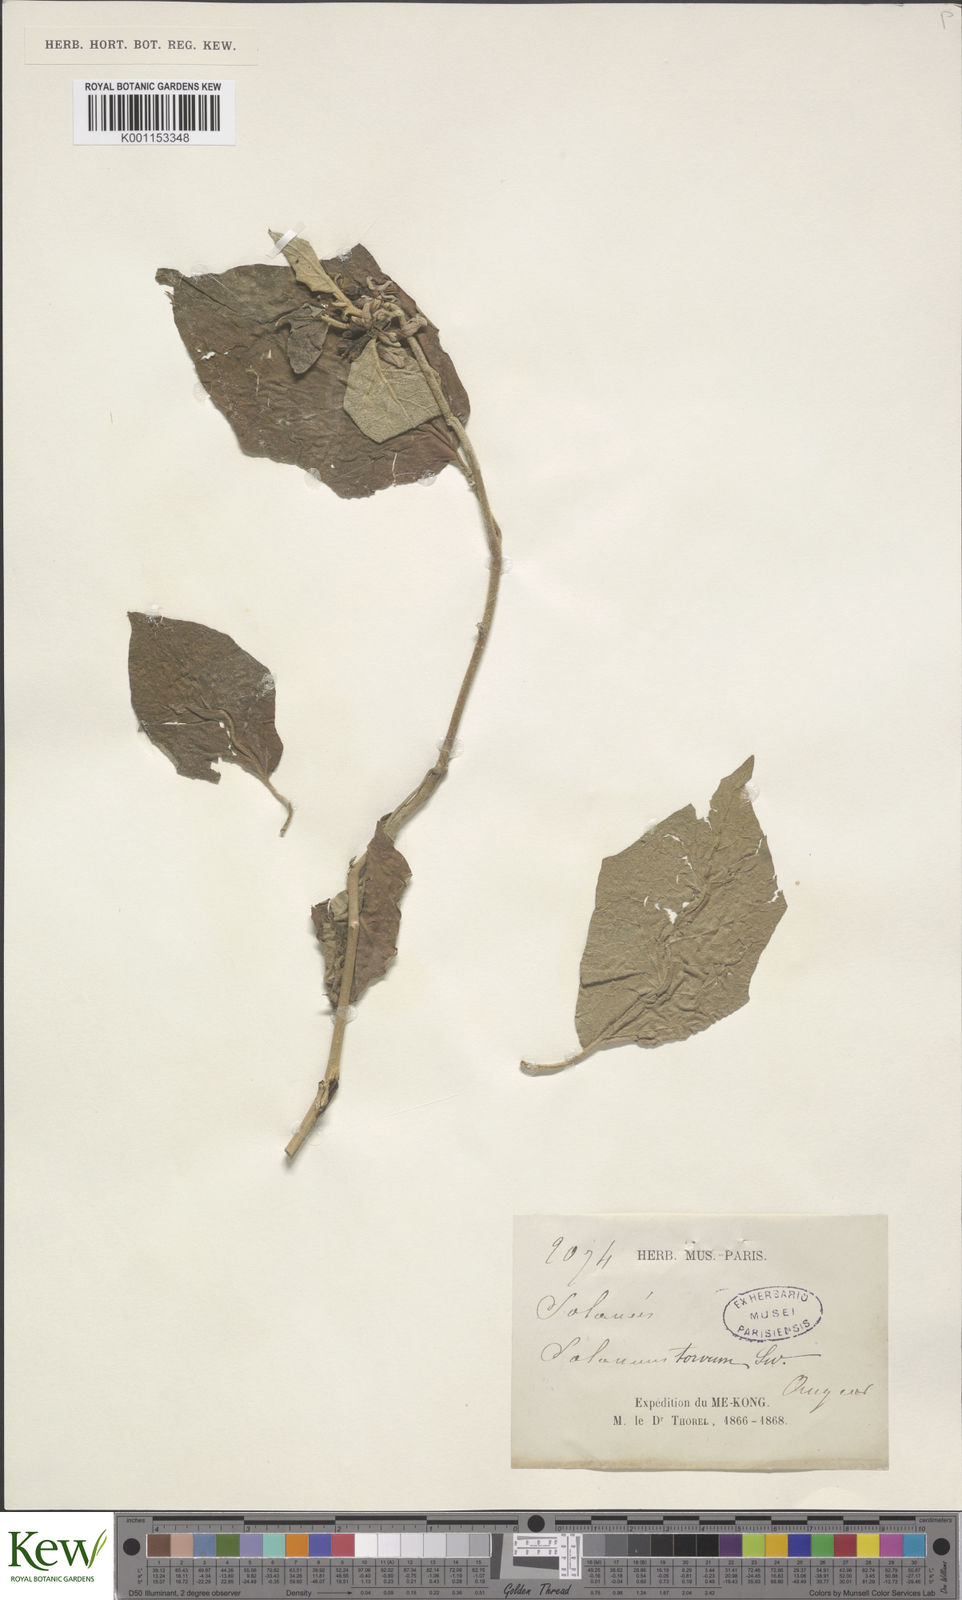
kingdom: Plantae
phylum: Tracheophyta
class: Magnoliopsida
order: Solanales
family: Solanaceae
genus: Solanum
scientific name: Solanum torvum
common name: Turkey berry
